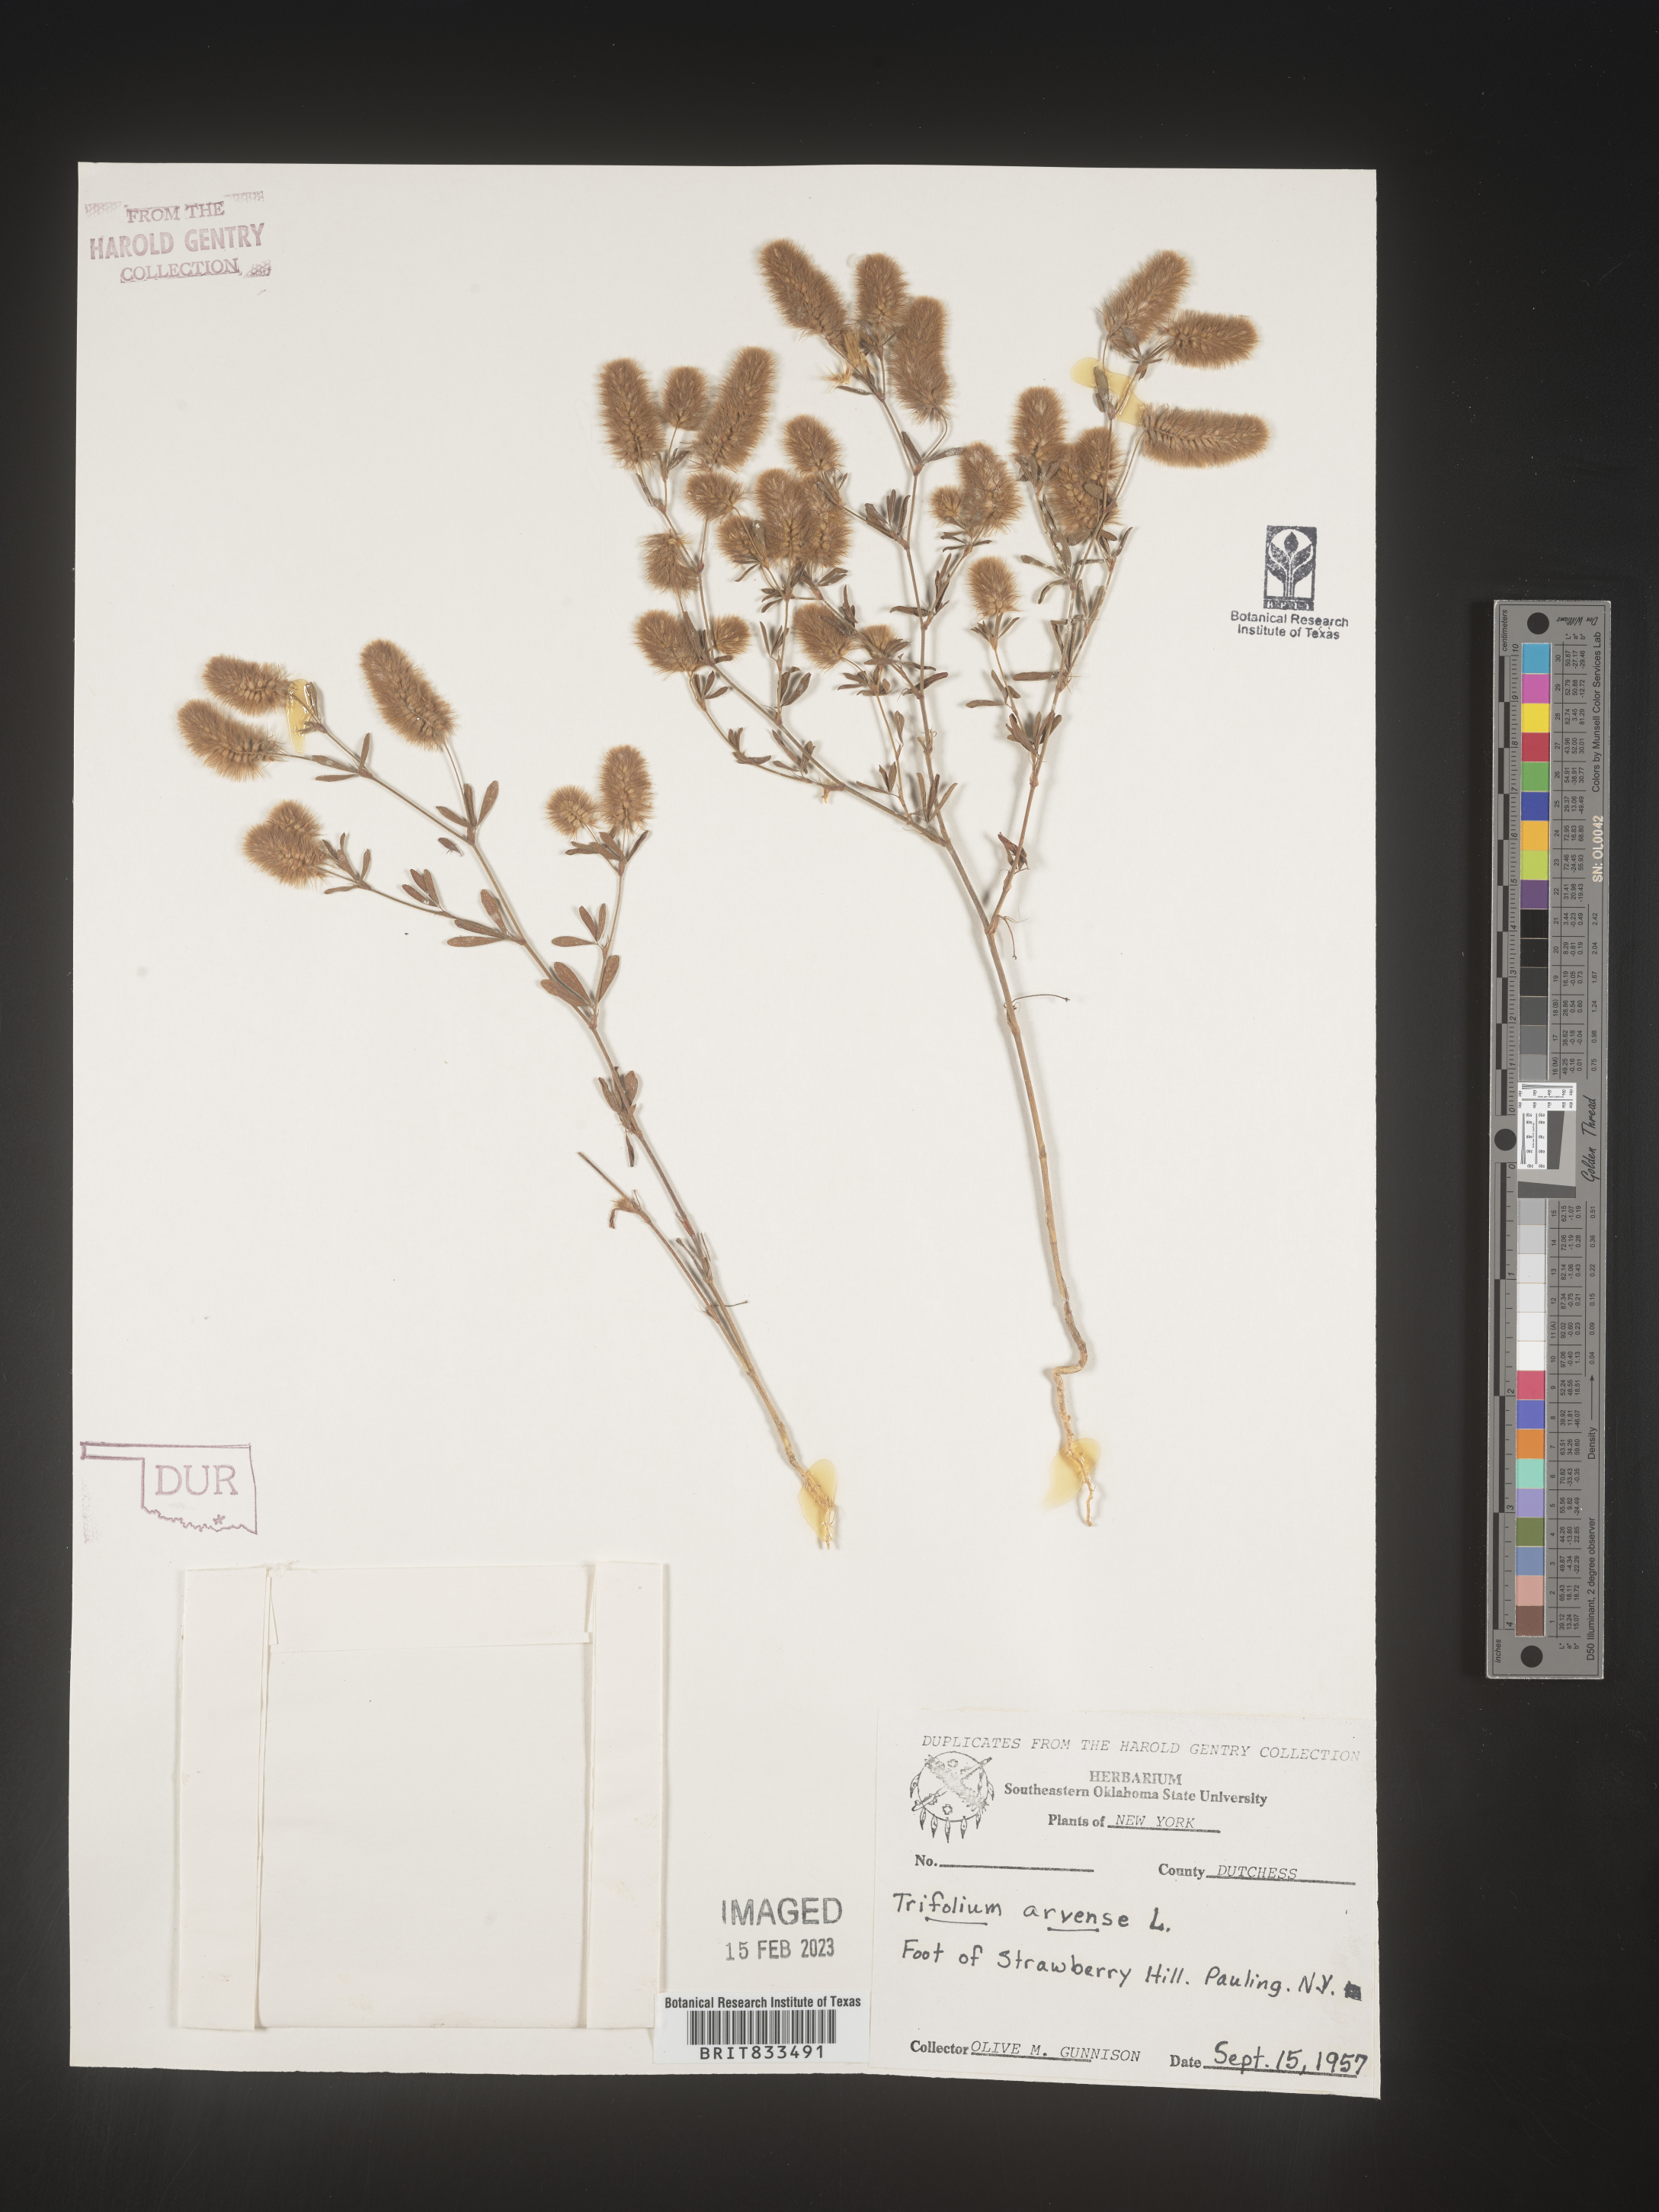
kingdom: Plantae
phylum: Tracheophyta
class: Magnoliopsida
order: Fabales
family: Fabaceae
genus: Trifolium
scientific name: Trifolium arvense
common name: Hare's-foot clover
